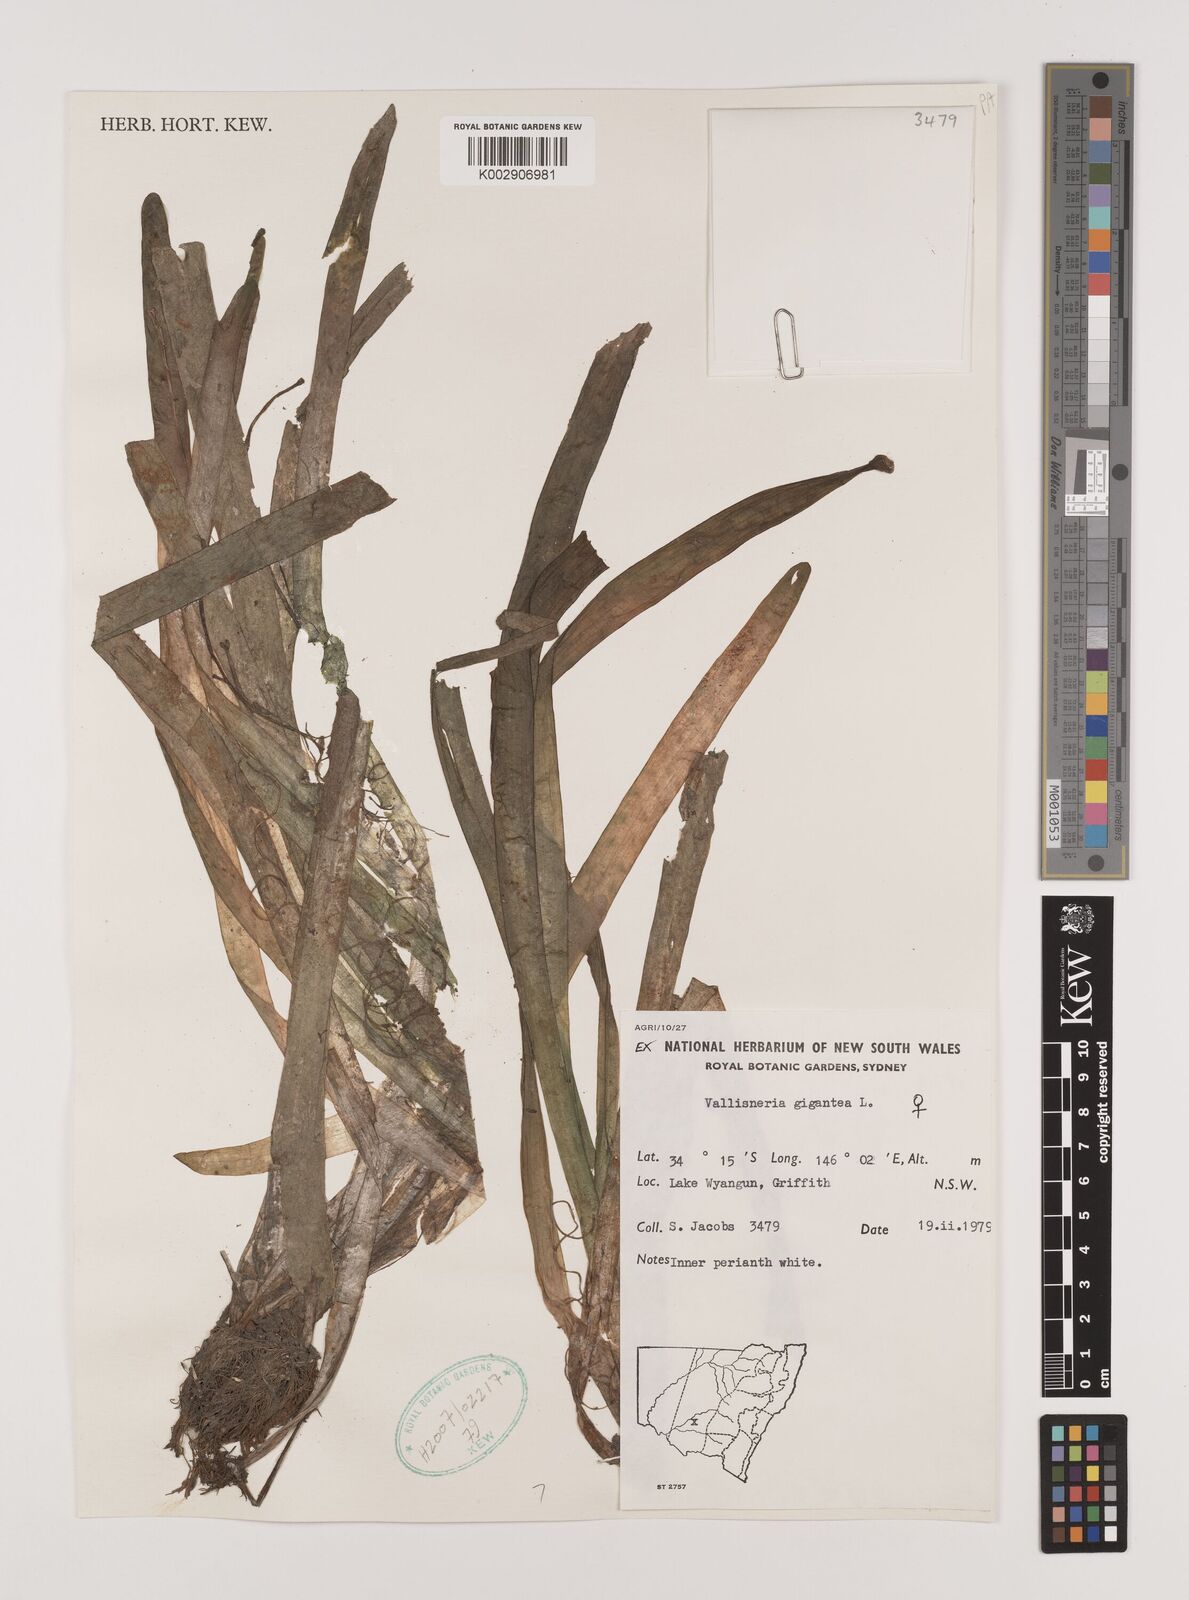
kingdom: Plantae
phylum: Tracheophyta
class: Liliopsida
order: Alismatales
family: Hydrocharitaceae
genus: Vallisneria
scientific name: Vallisneria nana
